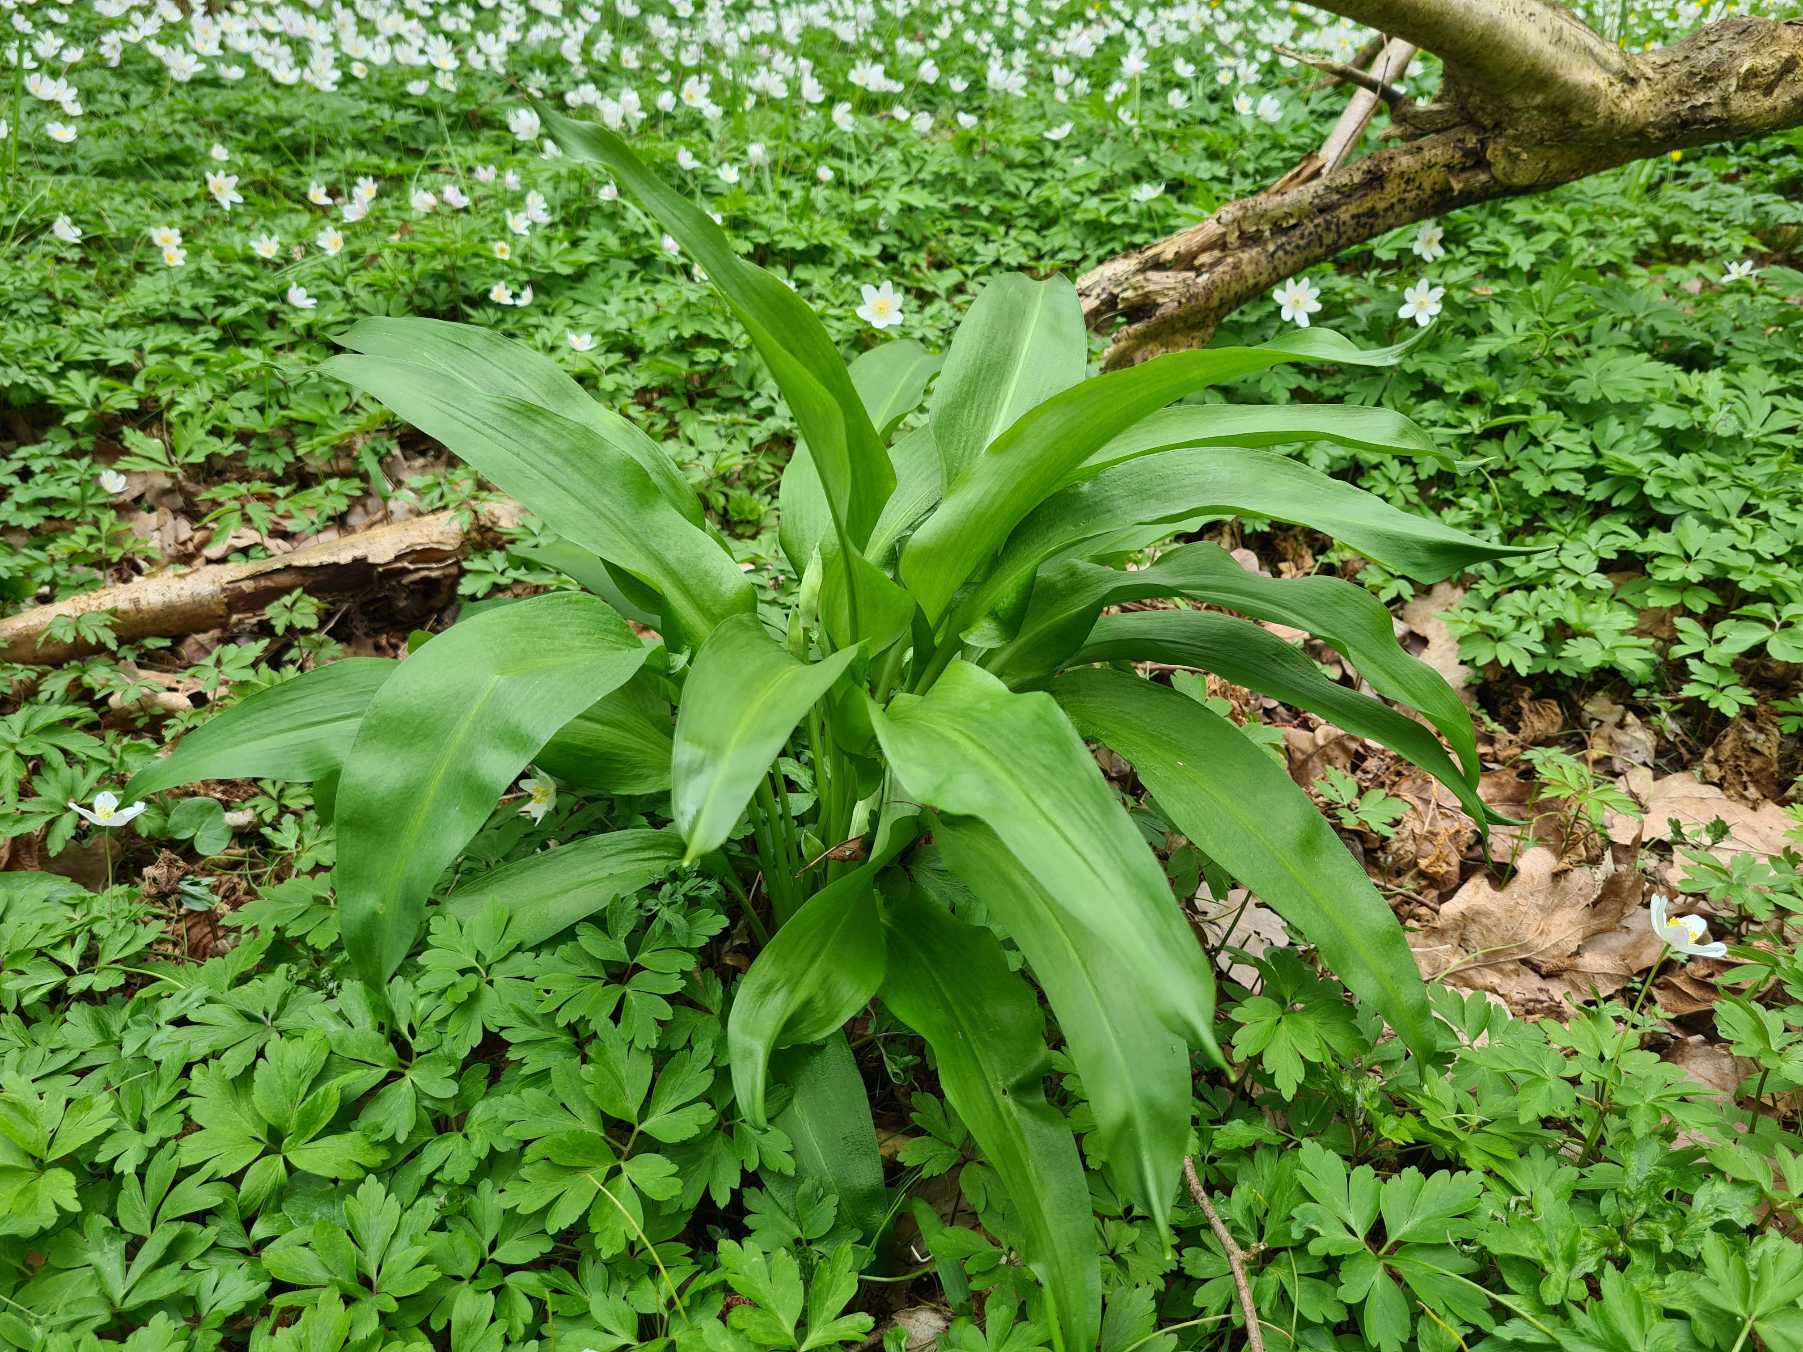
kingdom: Plantae
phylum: Tracheophyta
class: Liliopsida
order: Asparagales
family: Amaryllidaceae
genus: Allium
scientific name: Allium ursinum
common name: Rams-løg
